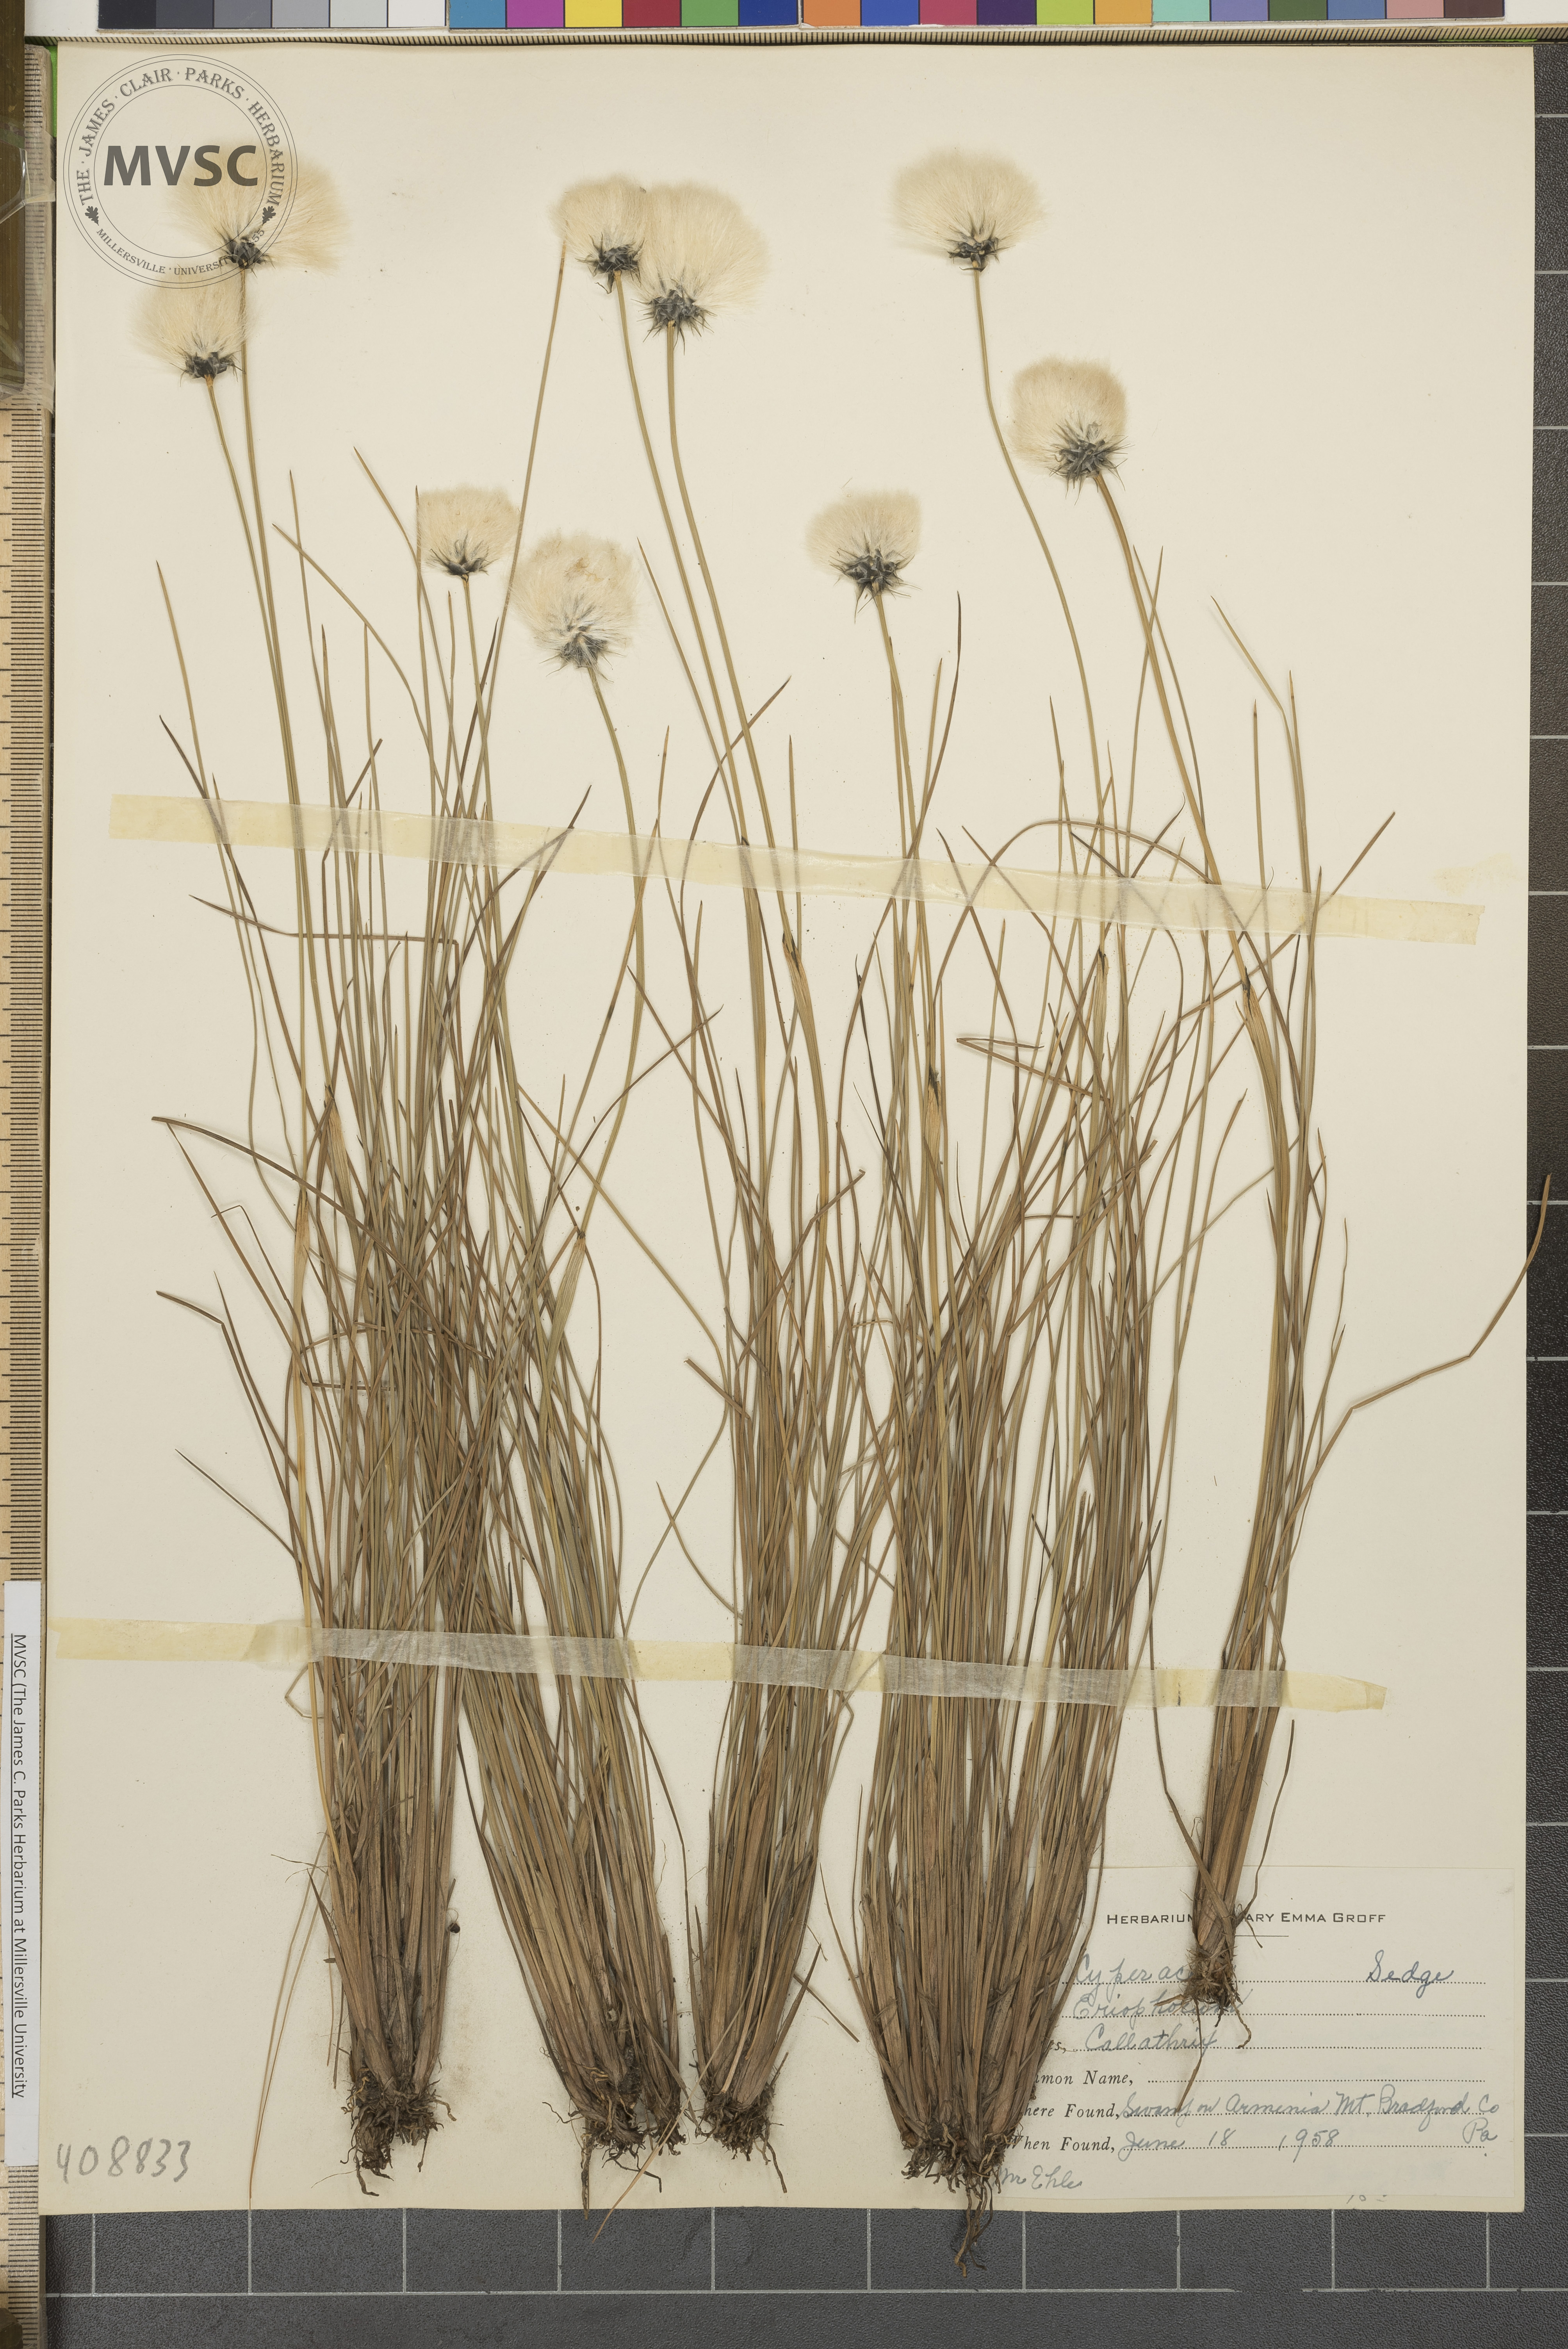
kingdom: Plantae
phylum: Tracheophyta
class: Liliopsida
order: Poales
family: Cyperaceae
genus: Eriophorum
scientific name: Eriophorum vaginatum
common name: Hare's-tail cottongrass
